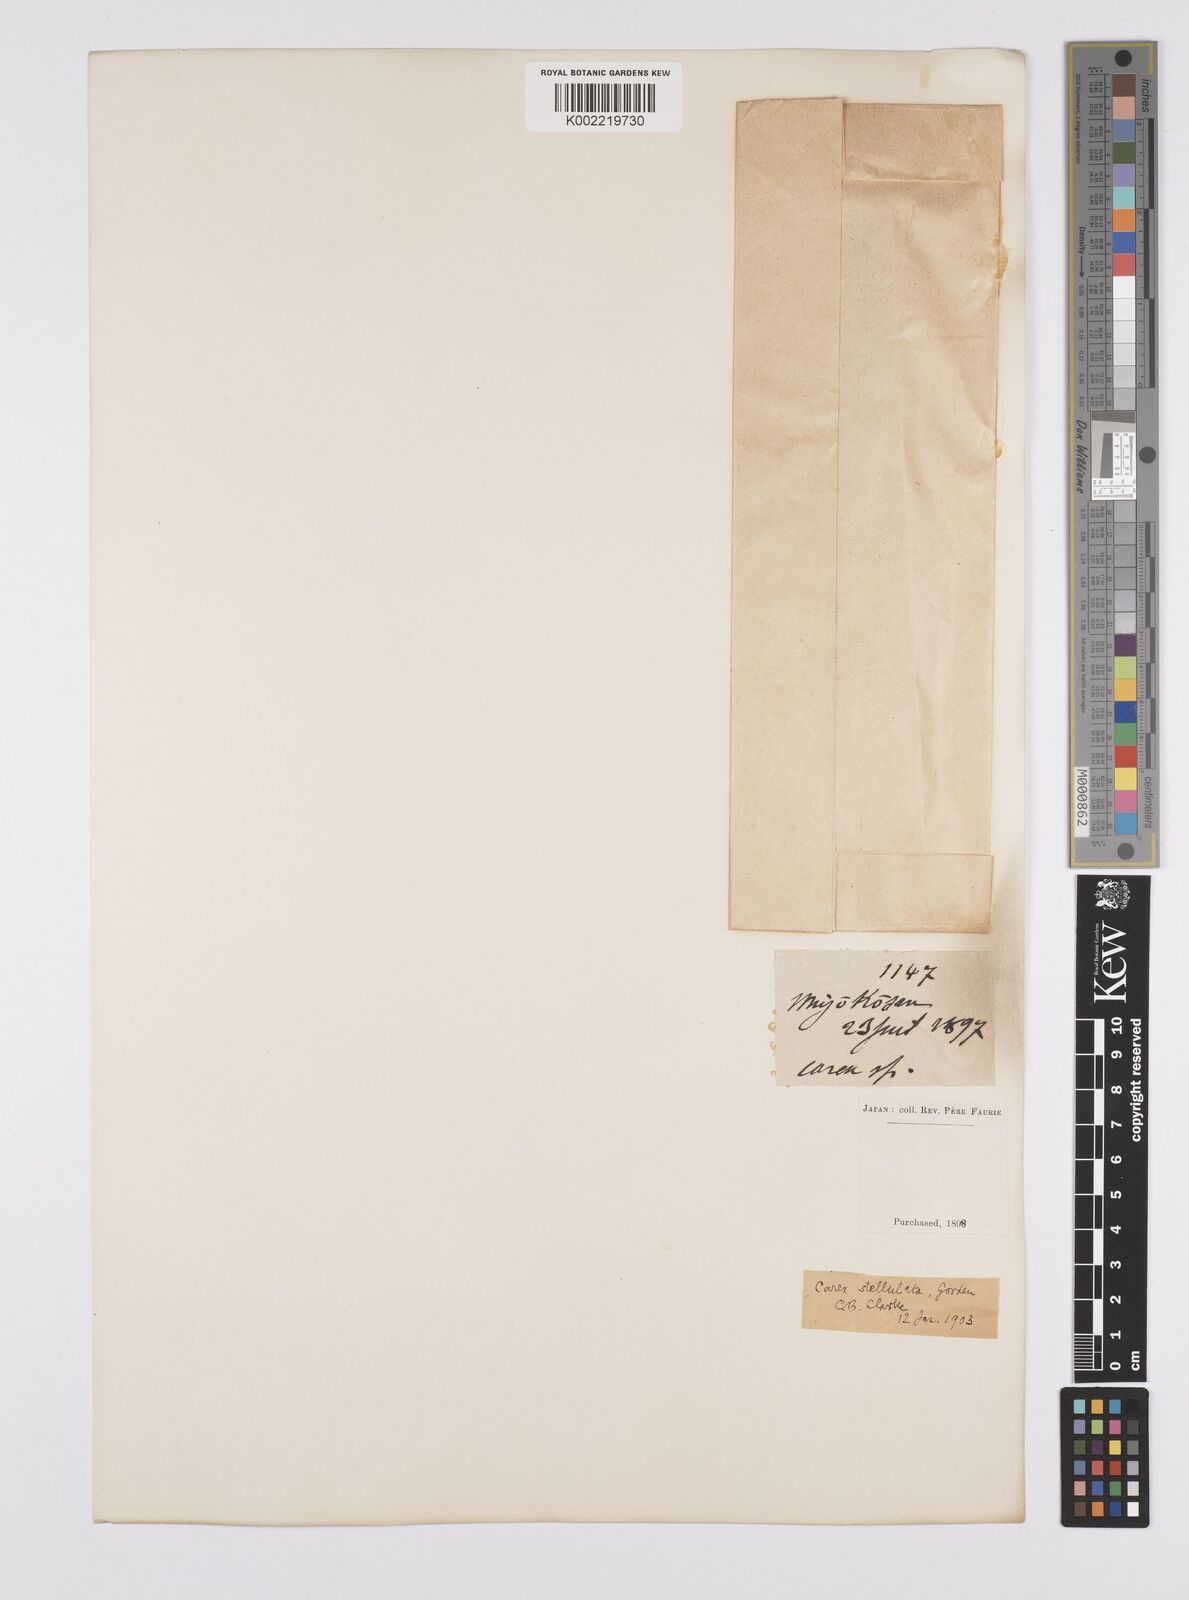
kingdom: Plantae
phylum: Tracheophyta
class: Liliopsida
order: Poales
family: Cyperaceae
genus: Carex
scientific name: Carex echinata
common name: Star sedge
